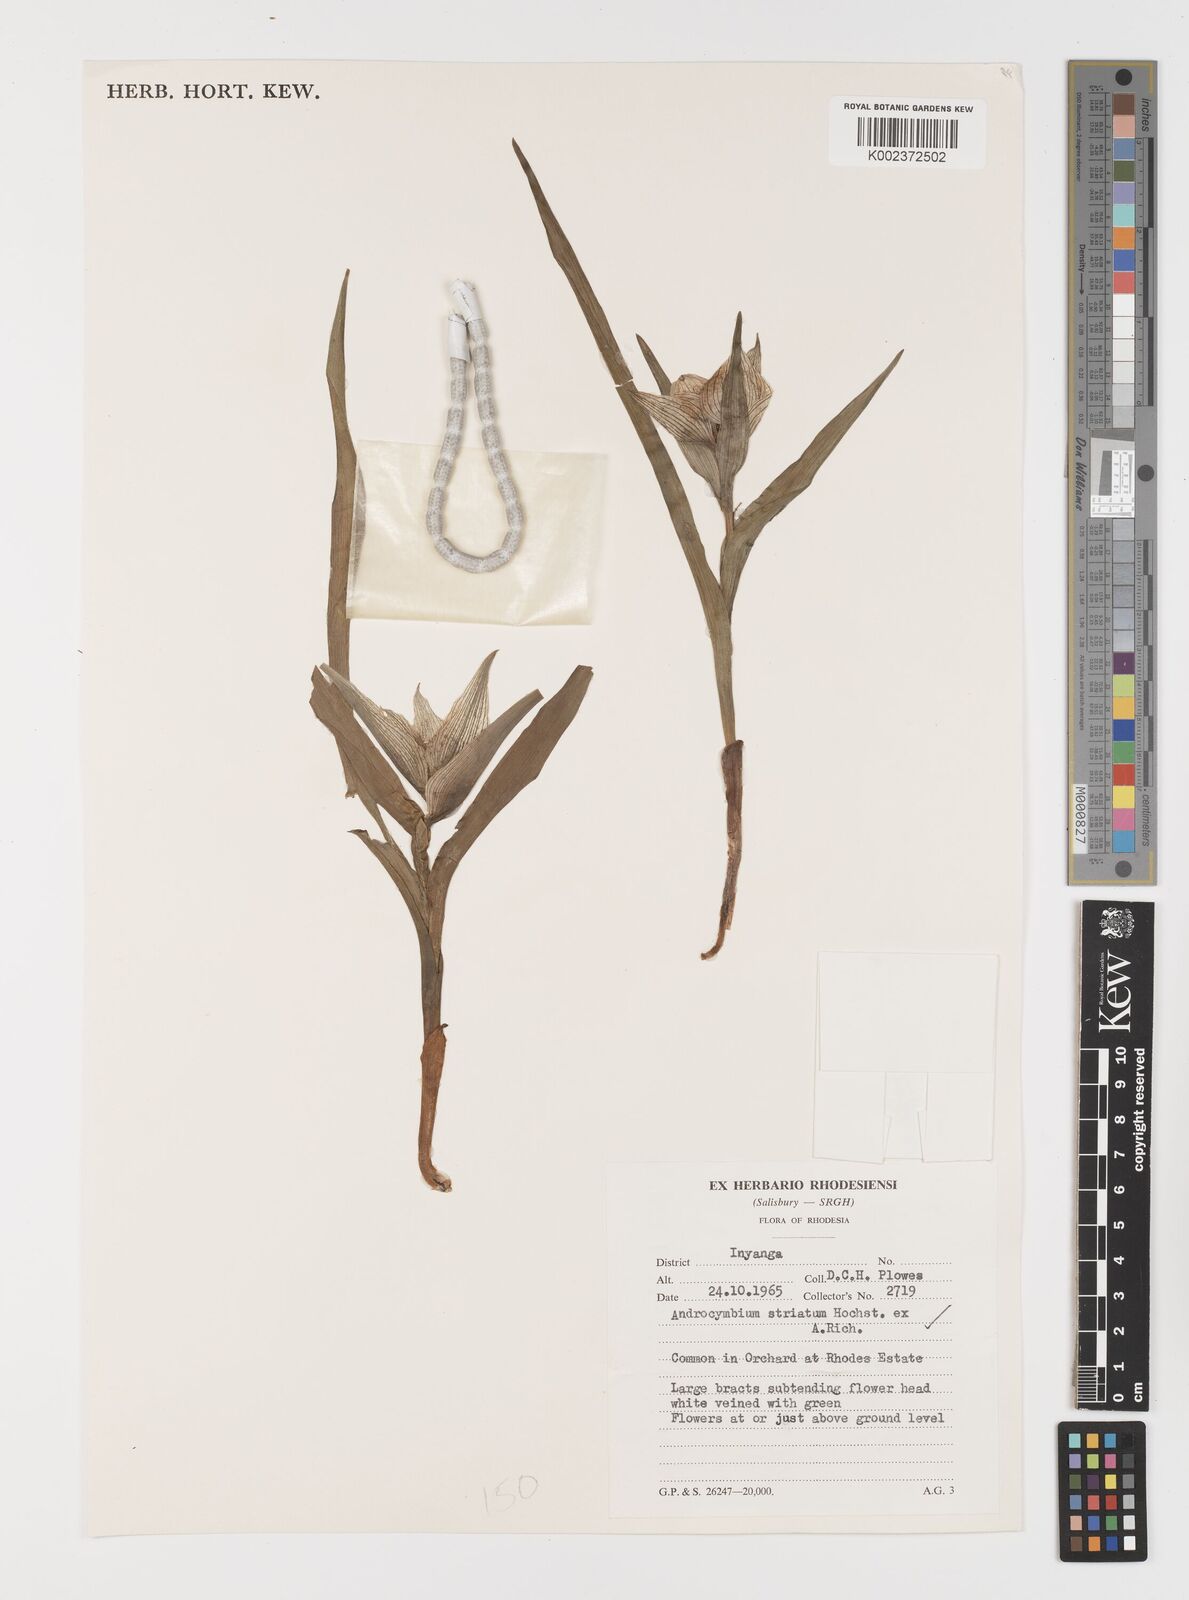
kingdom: Plantae
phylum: Tracheophyta
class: Liliopsida
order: Liliales
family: Colchicaceae
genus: Colchicum
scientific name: Colchicum striatum
